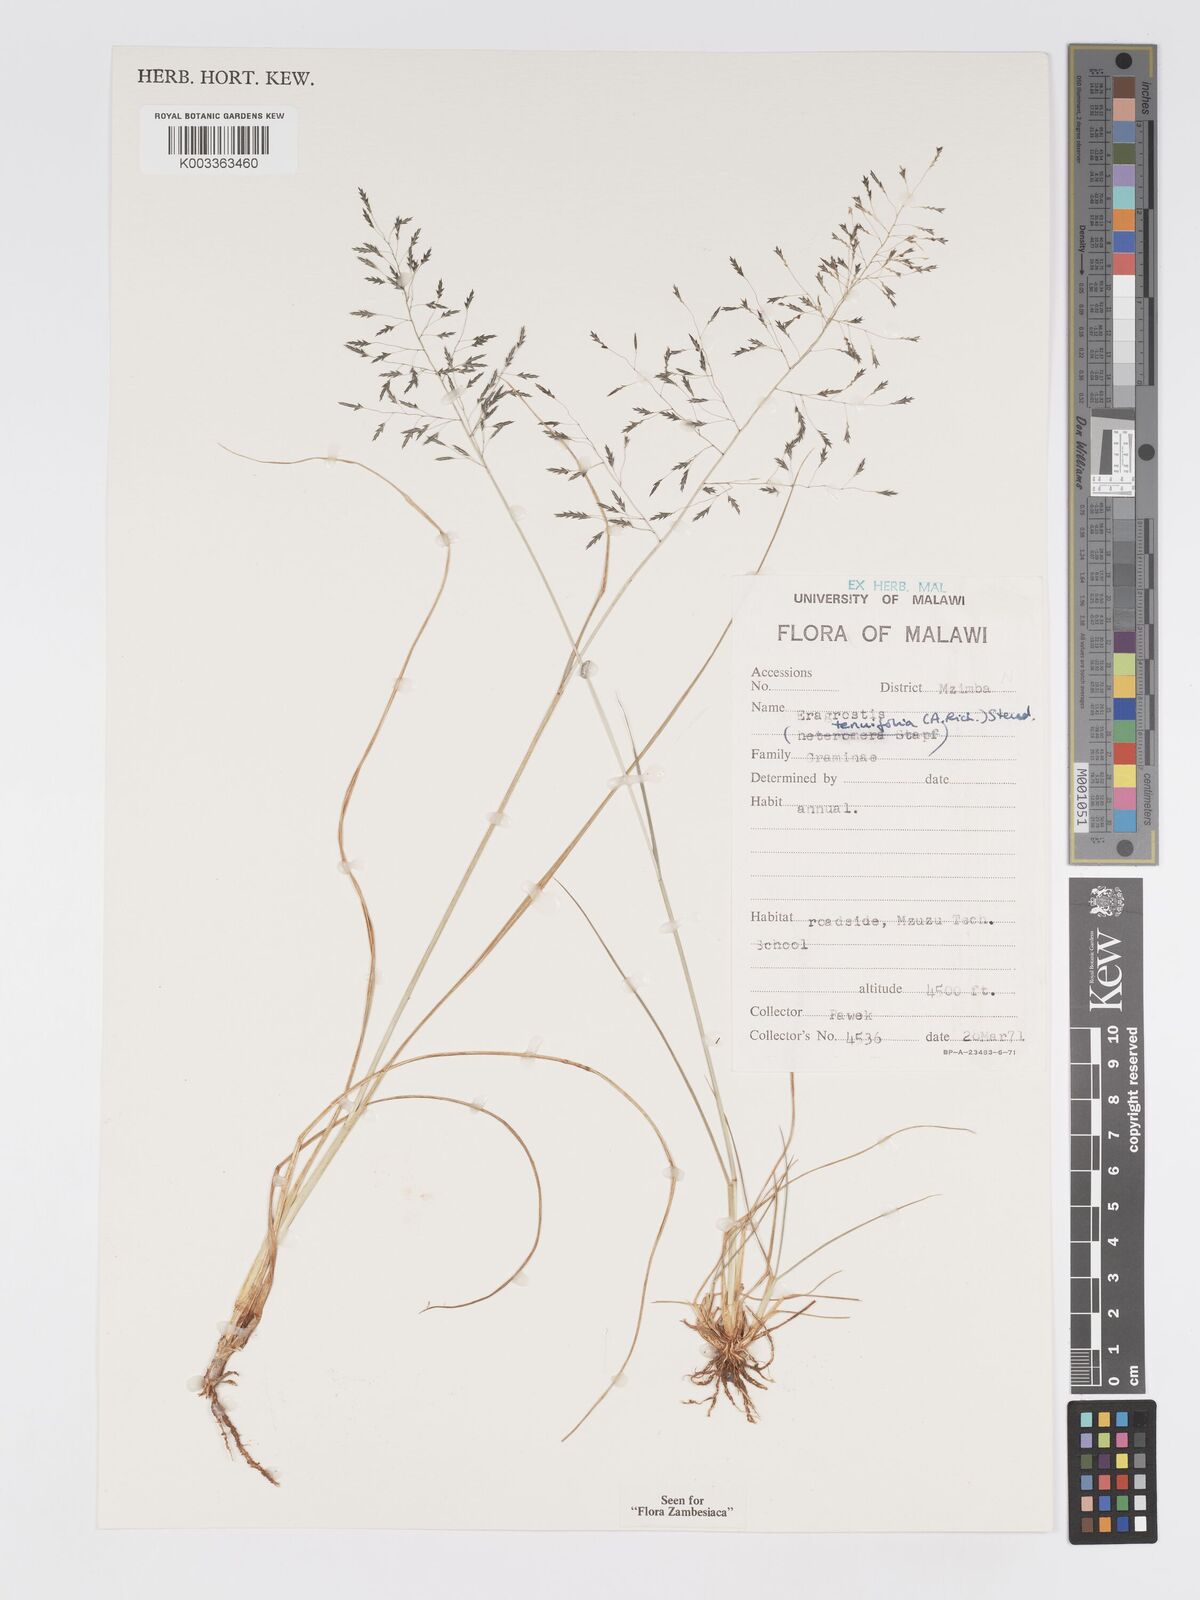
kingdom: Plantae
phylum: Tracheophyta
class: Liliopsida
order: Poales
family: Poaceae
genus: Eragrostis
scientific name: Eragrostis tenuifolia
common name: Elastic grass
